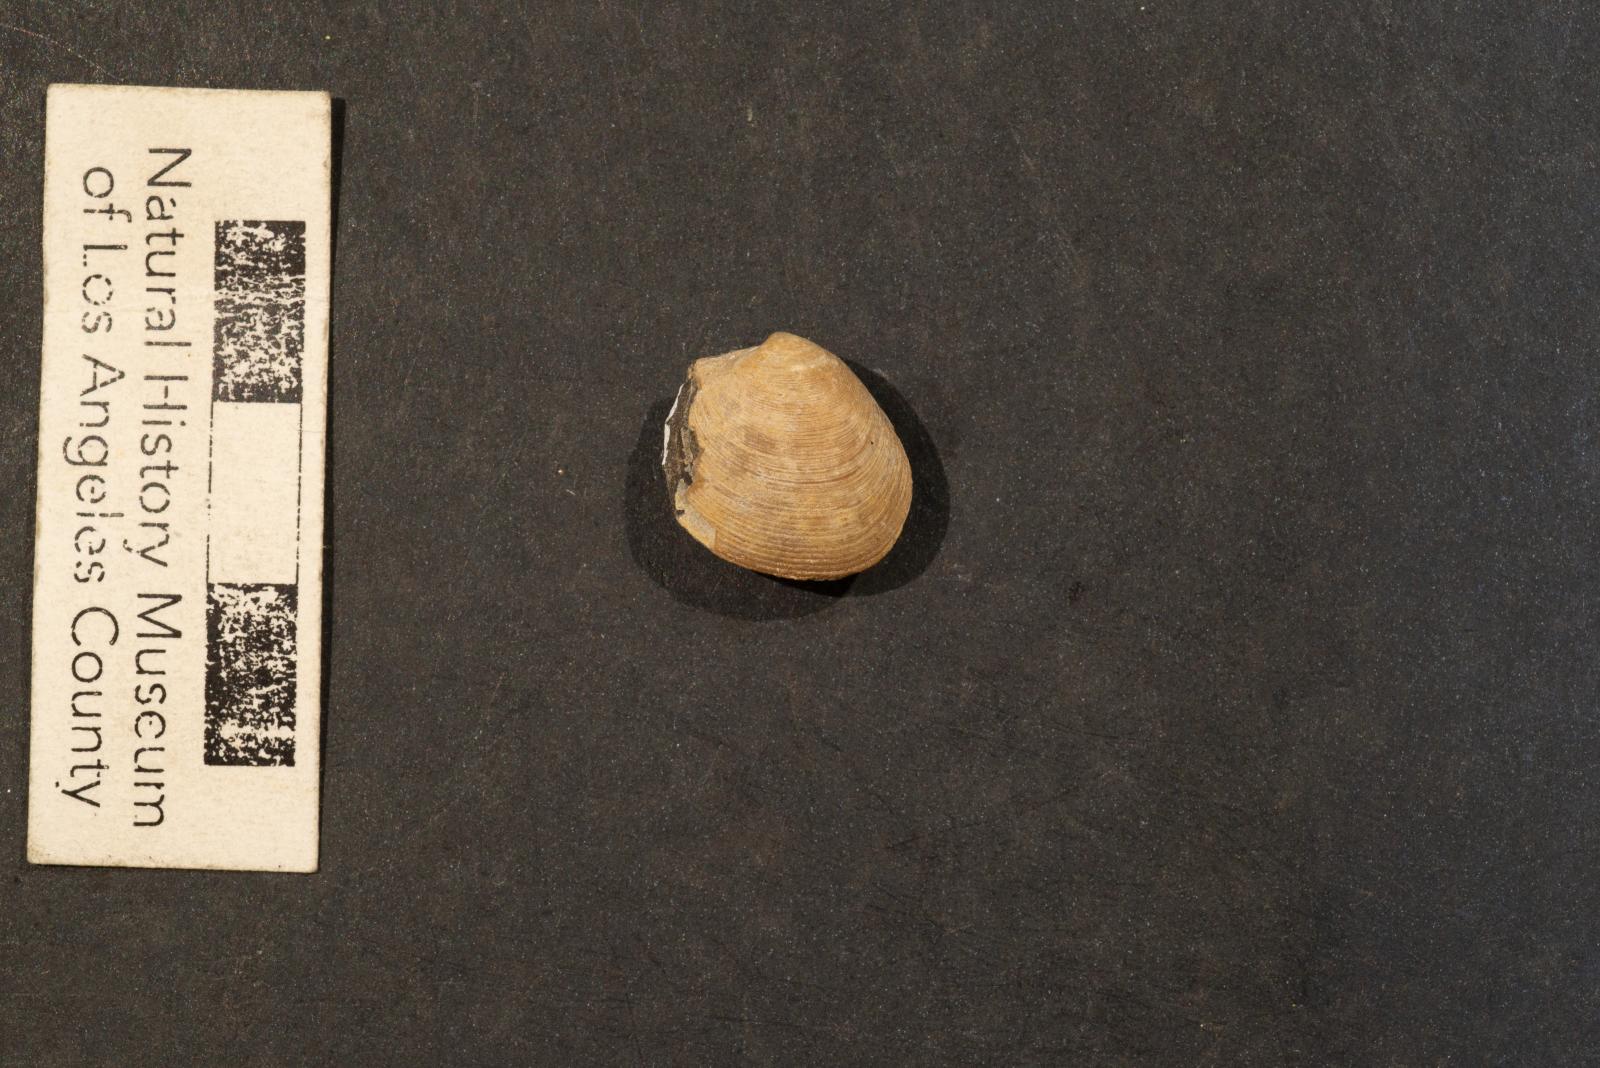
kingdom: Animalia
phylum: Mollusca
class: Bivalvia
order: Venerida
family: Veneridae
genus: Callistalox
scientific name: Callistalox Meretrix arata
